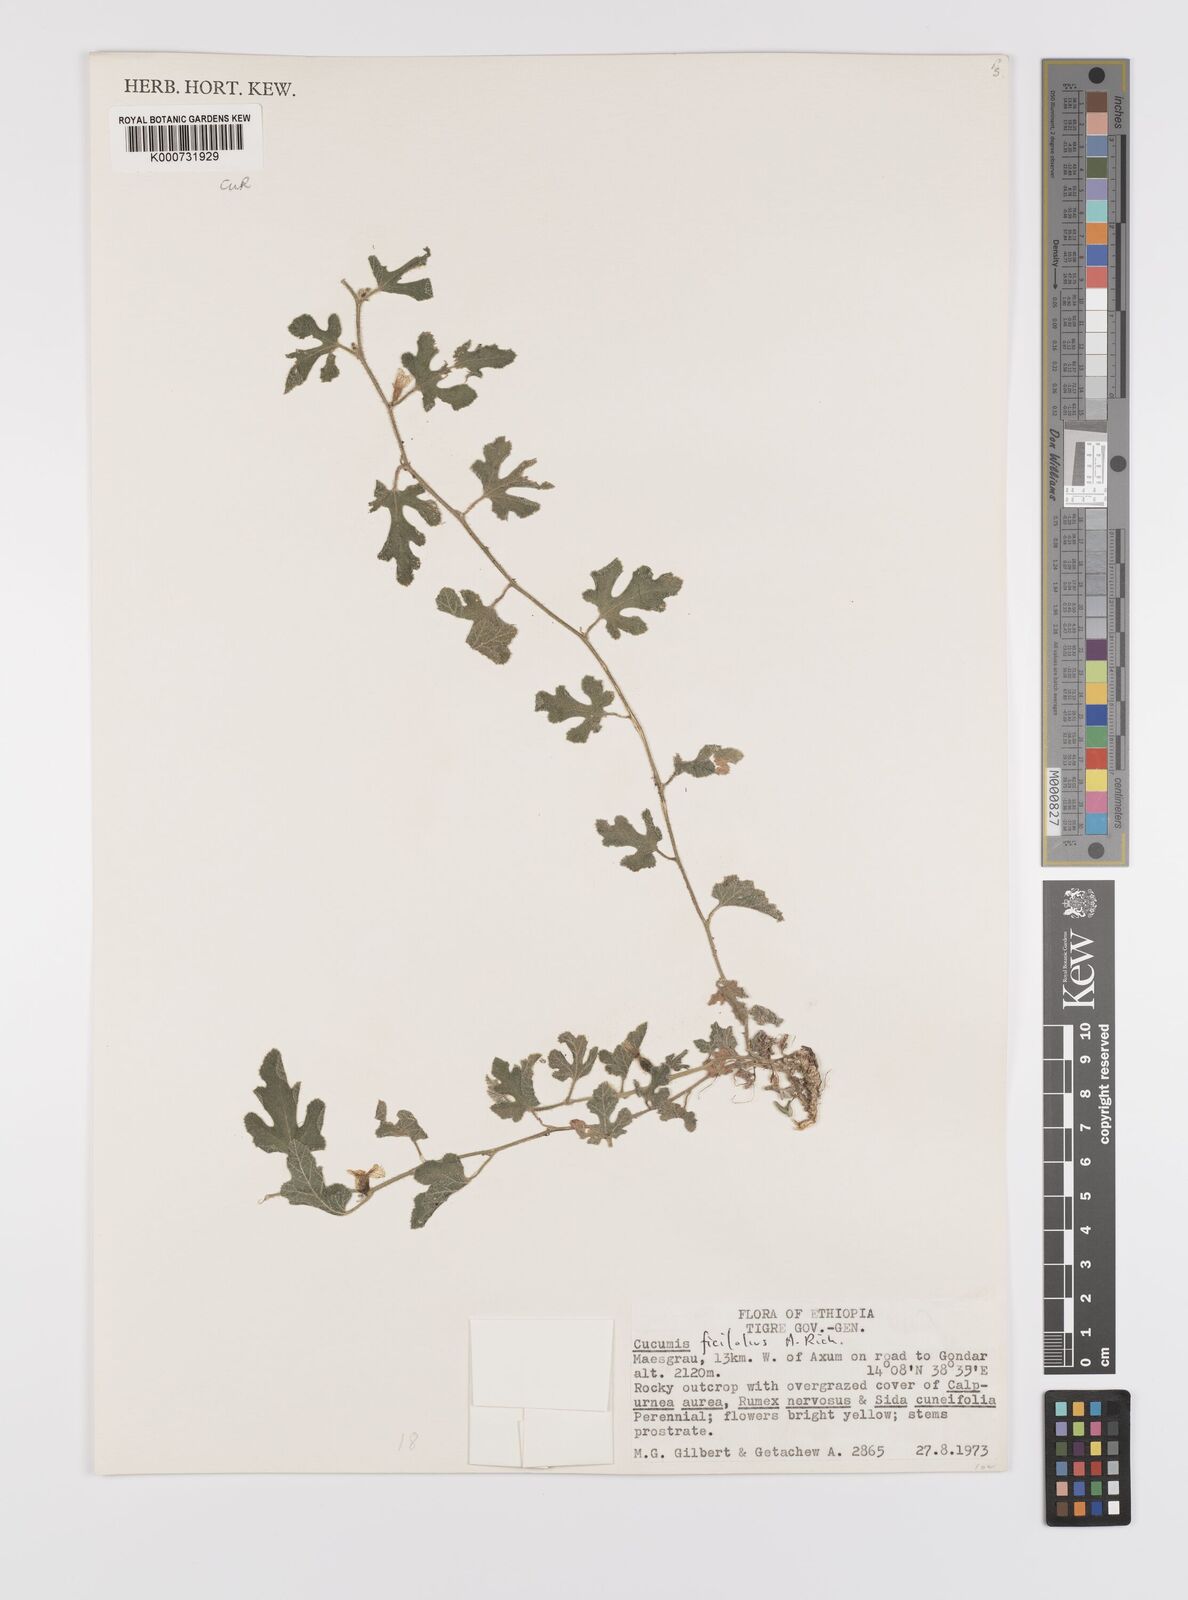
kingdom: Plantae
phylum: Tracheophyta
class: Magnoliopsida
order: Cucurbitales
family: Cucurbitaceae
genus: Cucumis
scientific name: Cucumis ficifolius
